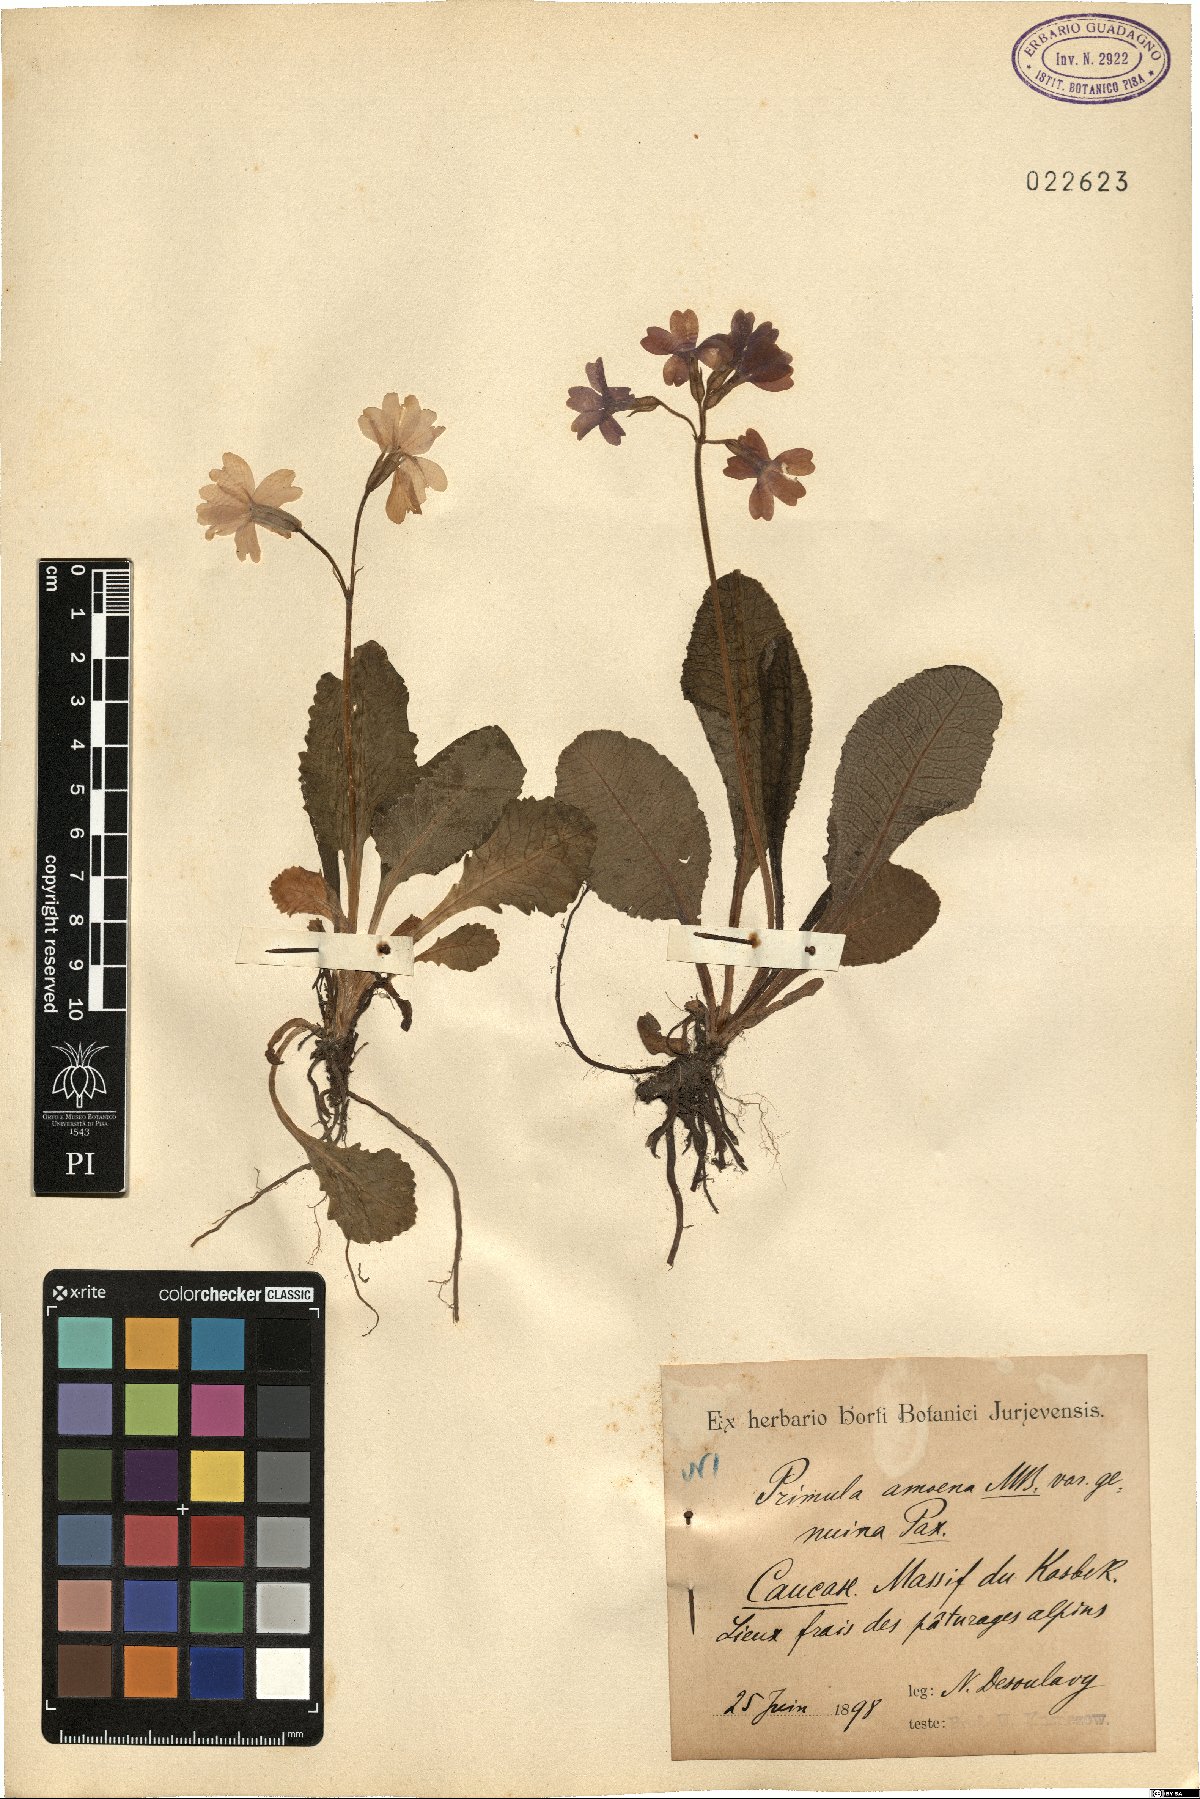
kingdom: Plantae
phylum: Tracheophyta
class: Magnoliopsida
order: Ericales
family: Primulaceae
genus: Primula
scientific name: Primula amoena
